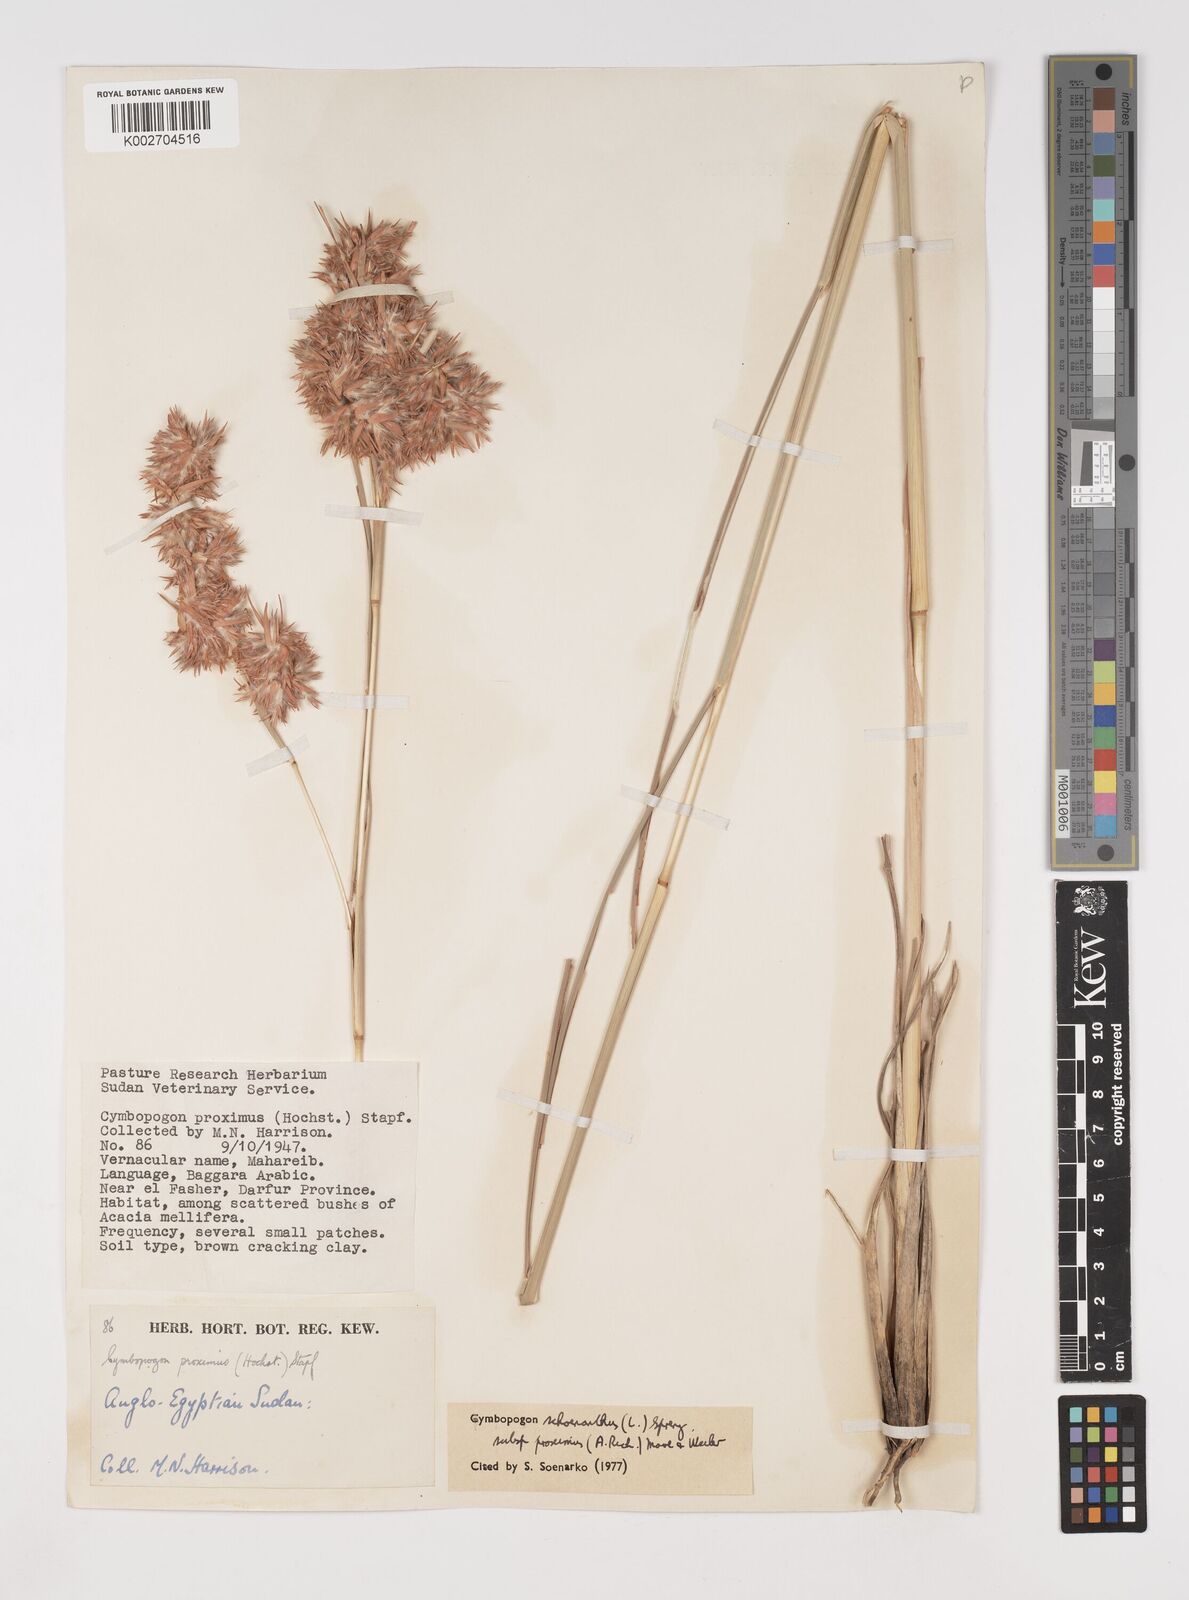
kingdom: Plantae
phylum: Tracheophyta
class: Liliopsida
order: Poales
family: Poaceae
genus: Cymbopogon
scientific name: Cymbopogon schoenanthus
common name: Geranium grass
